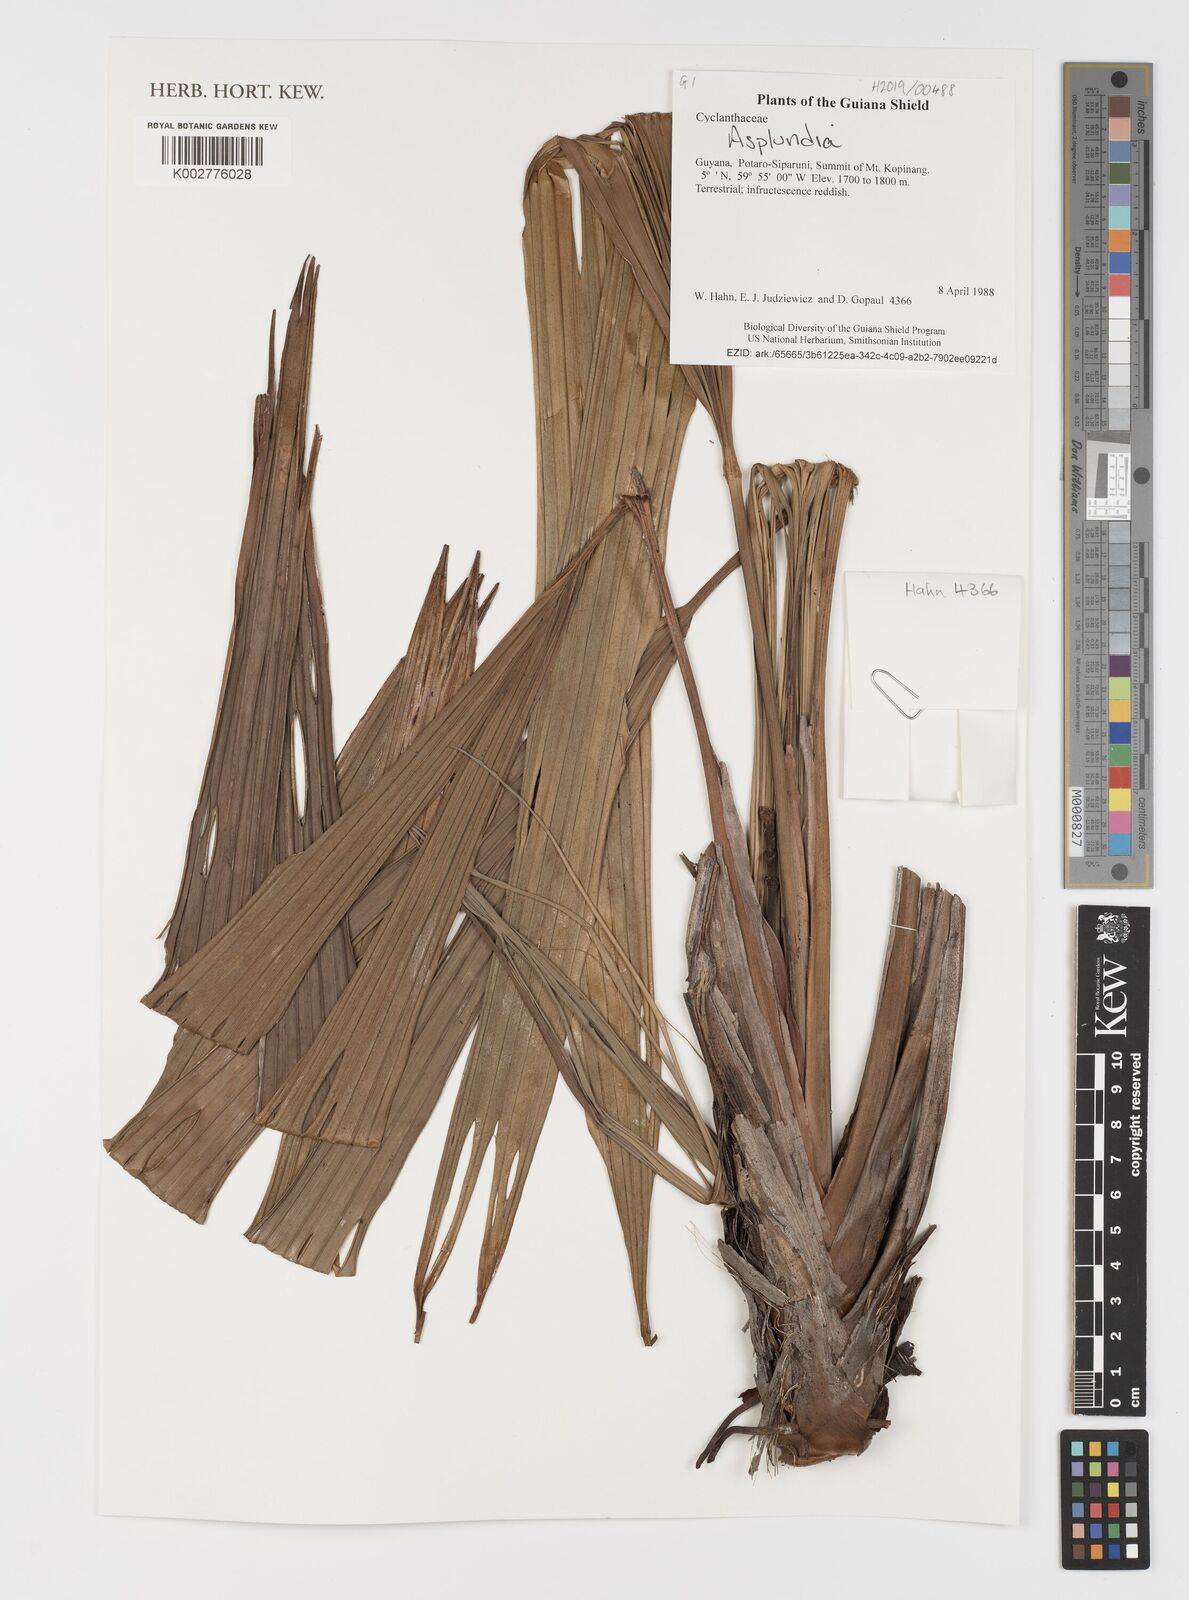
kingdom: Plantae
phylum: Tracheophyta
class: Liliopsida
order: Pandanales
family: Cyclanthaceae
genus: Asplundia
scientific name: Asplundia
